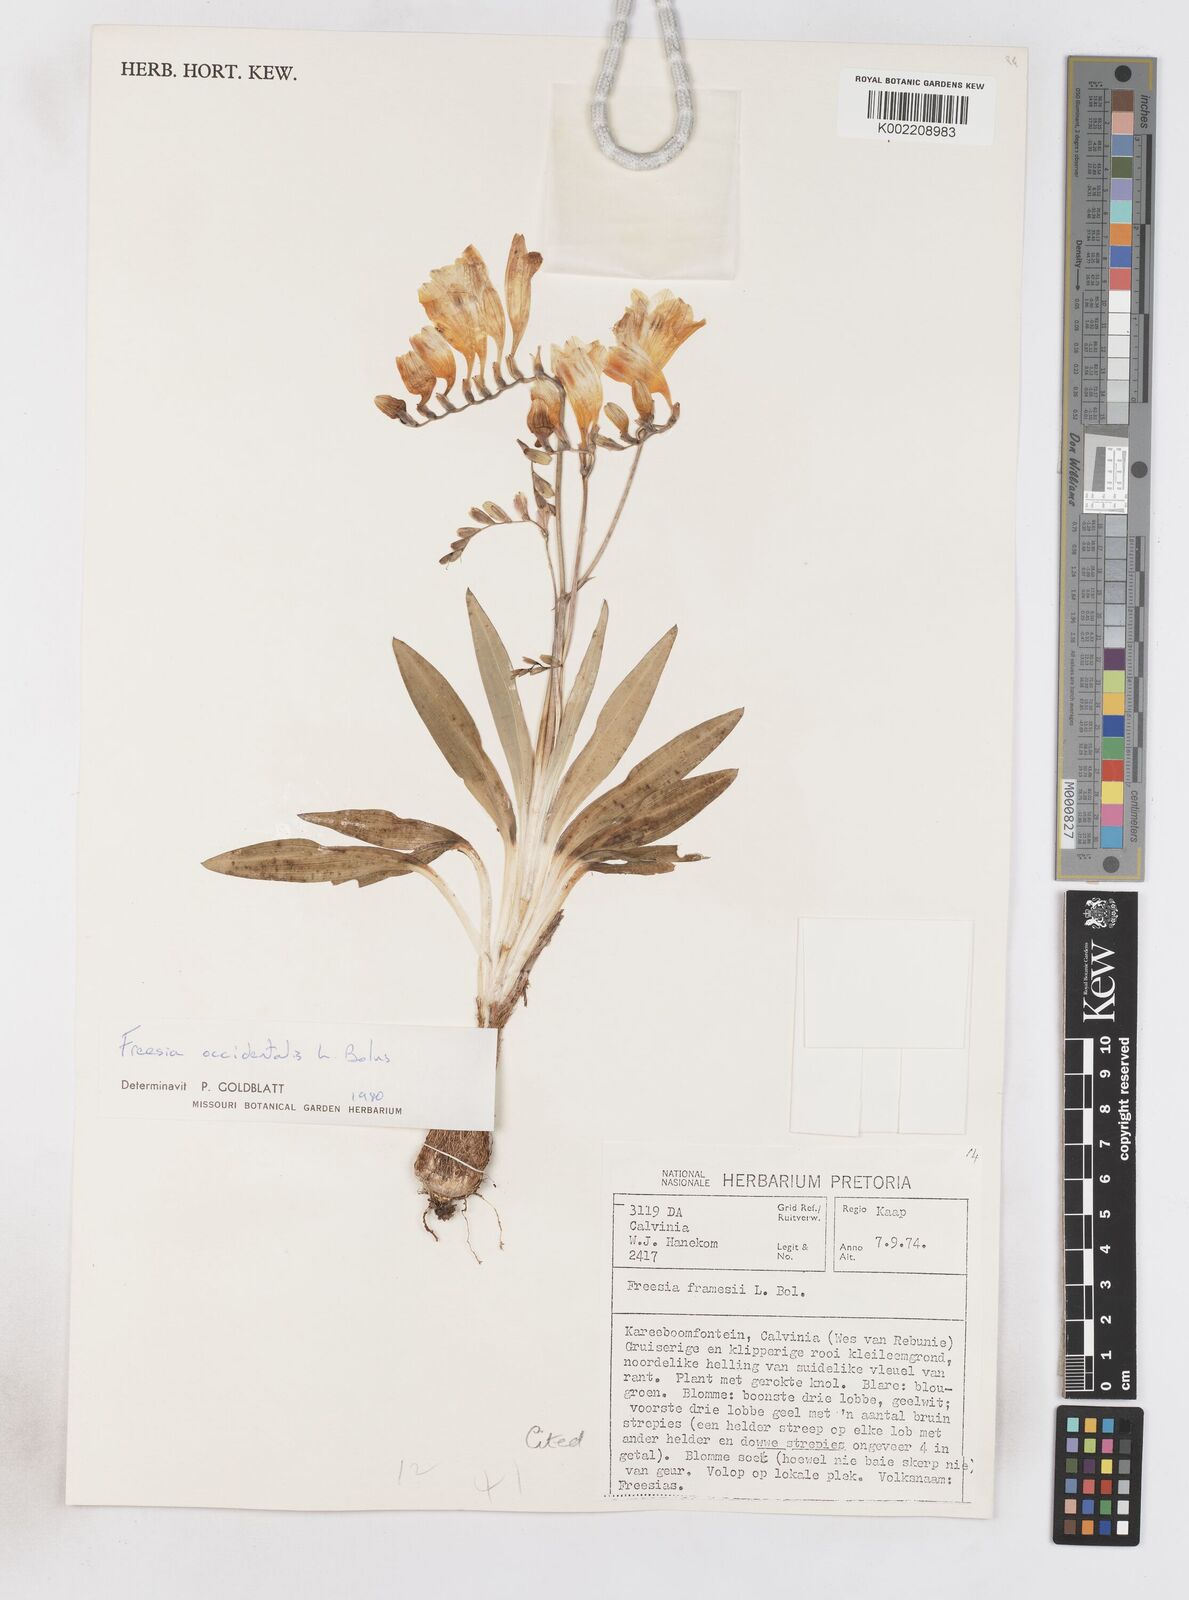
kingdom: Plantae
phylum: Tracheophyta
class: Liliopsida
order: Asparagales
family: Iridaceae
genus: Freesia
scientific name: Freesia occidentalis
